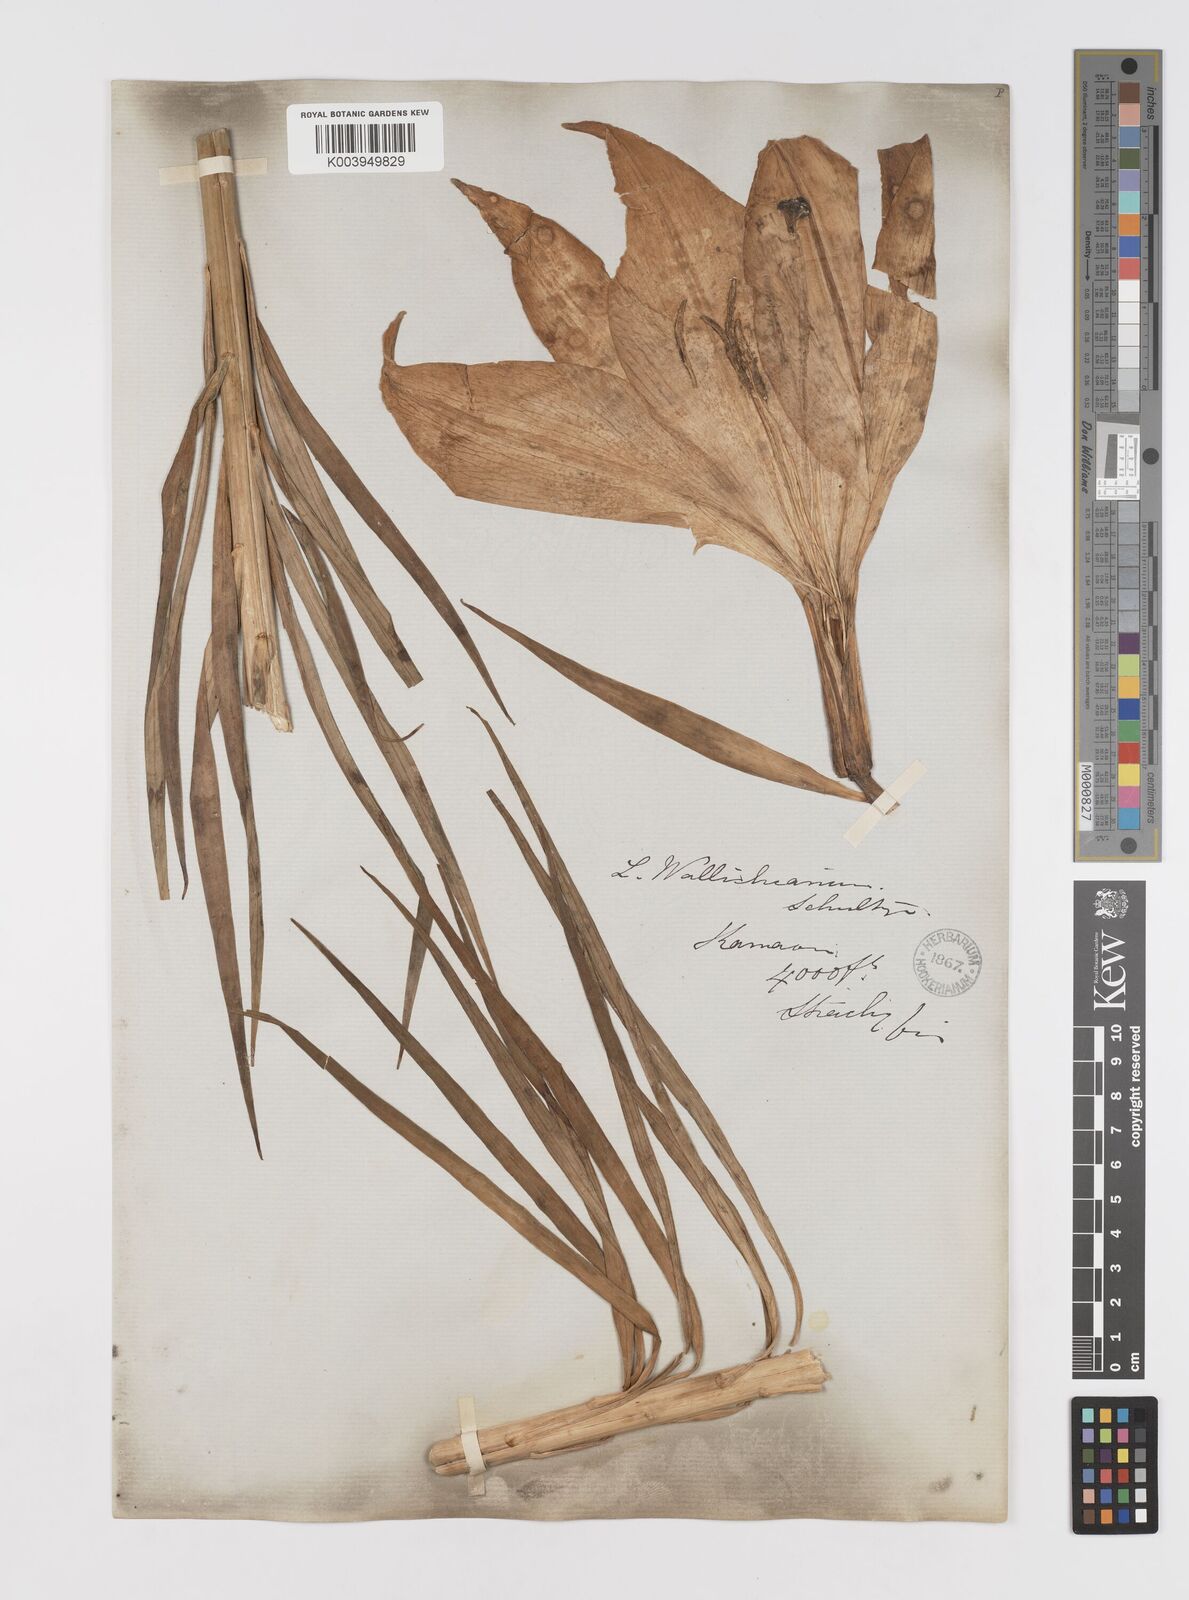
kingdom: Plantae
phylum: Tracheophyta
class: Liliopsida
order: Liliales
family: Liliaceae
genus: Lilium
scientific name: Lilium wallichianum
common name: Wallich's lily
